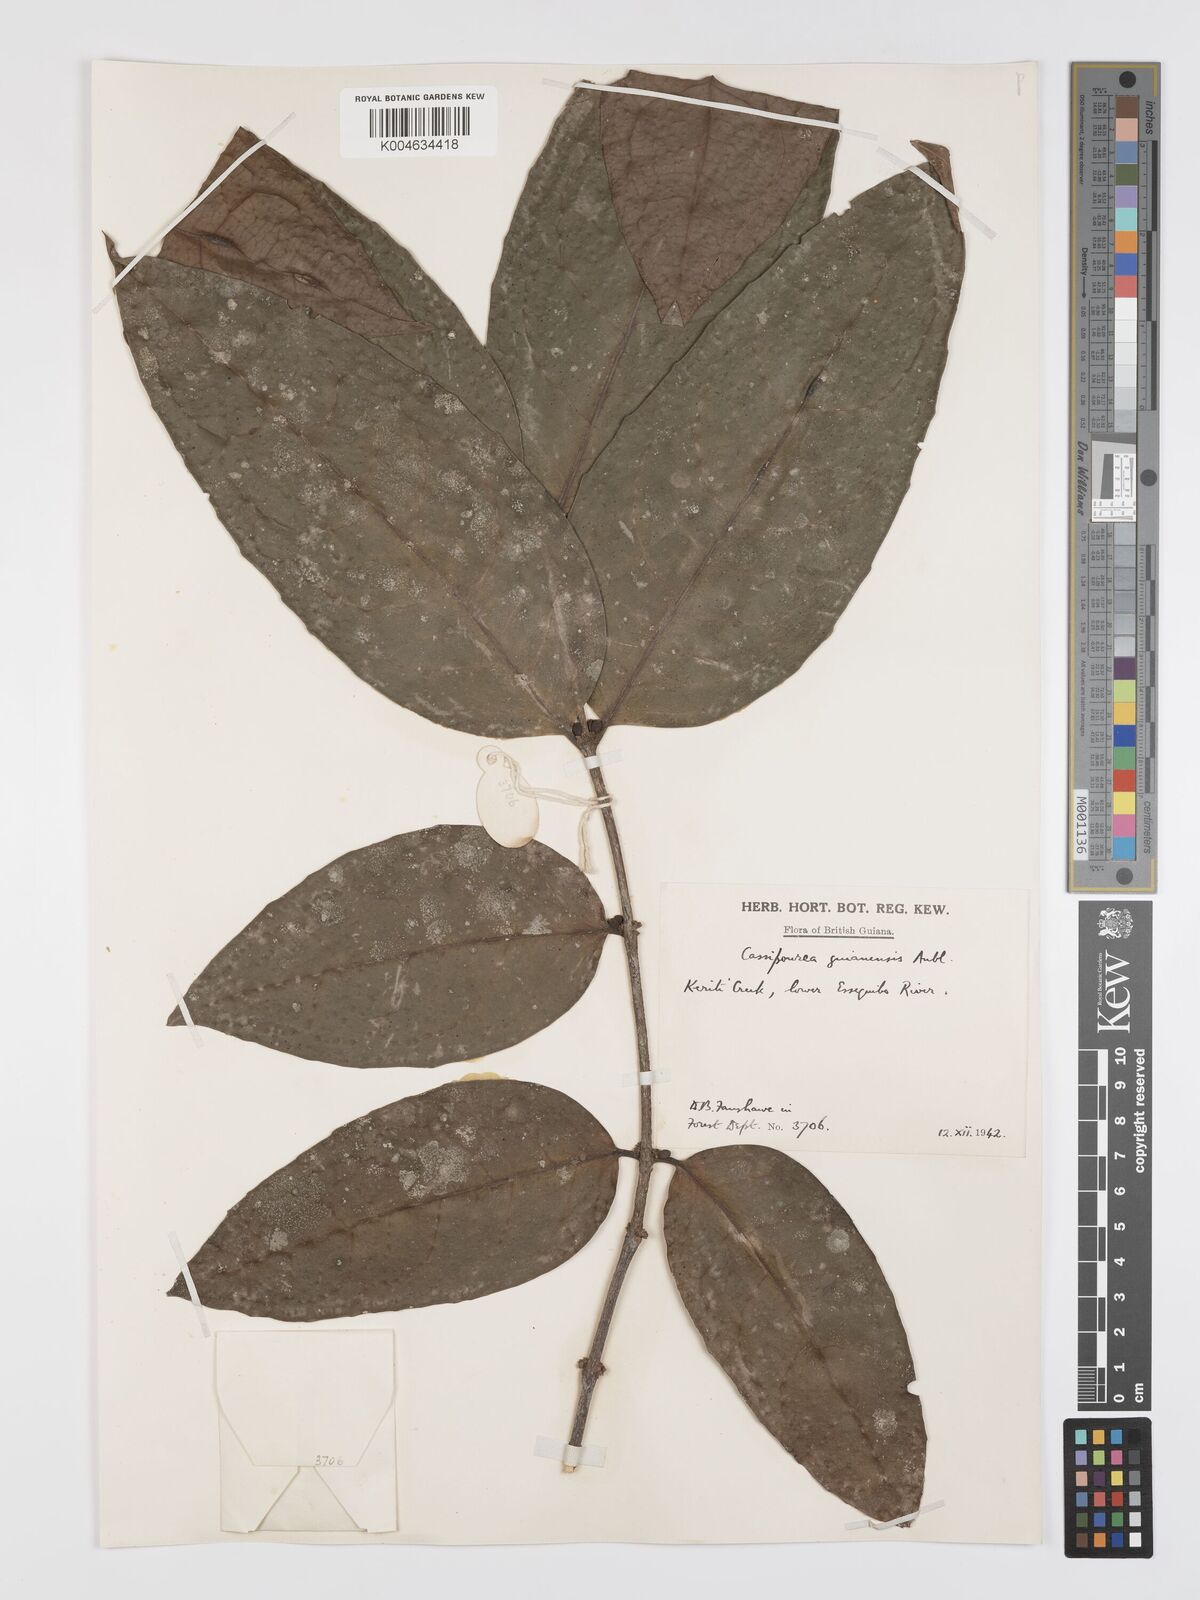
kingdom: Plantae
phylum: Tracheophyta
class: Magnoliopsida
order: Malpighiales
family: Rhizophoraceae
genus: Cassipourea
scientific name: Cassipourea guianensis
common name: Bastard waterwood
